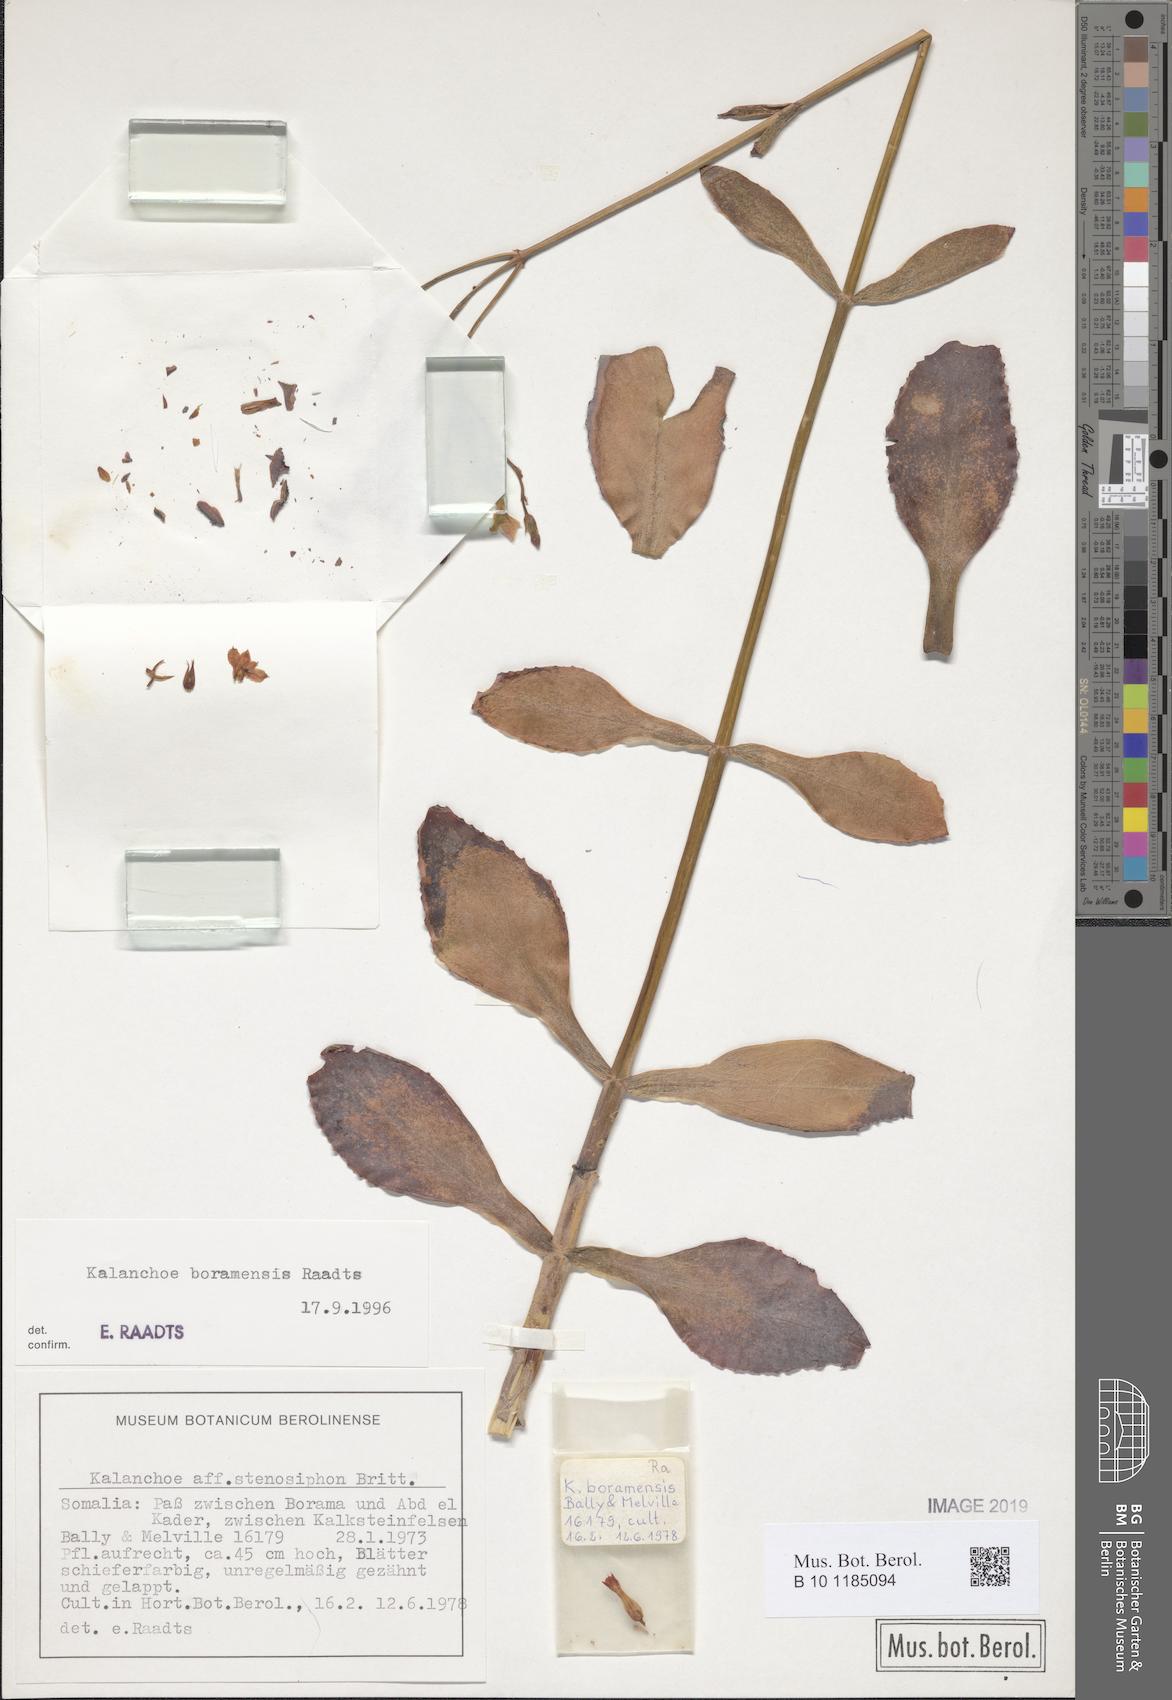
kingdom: Plantae
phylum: Tracheophyta
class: Magnoliopsida
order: Saxifragales
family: Crassulaceae
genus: Kalanchoe
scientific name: Kalanchoe
